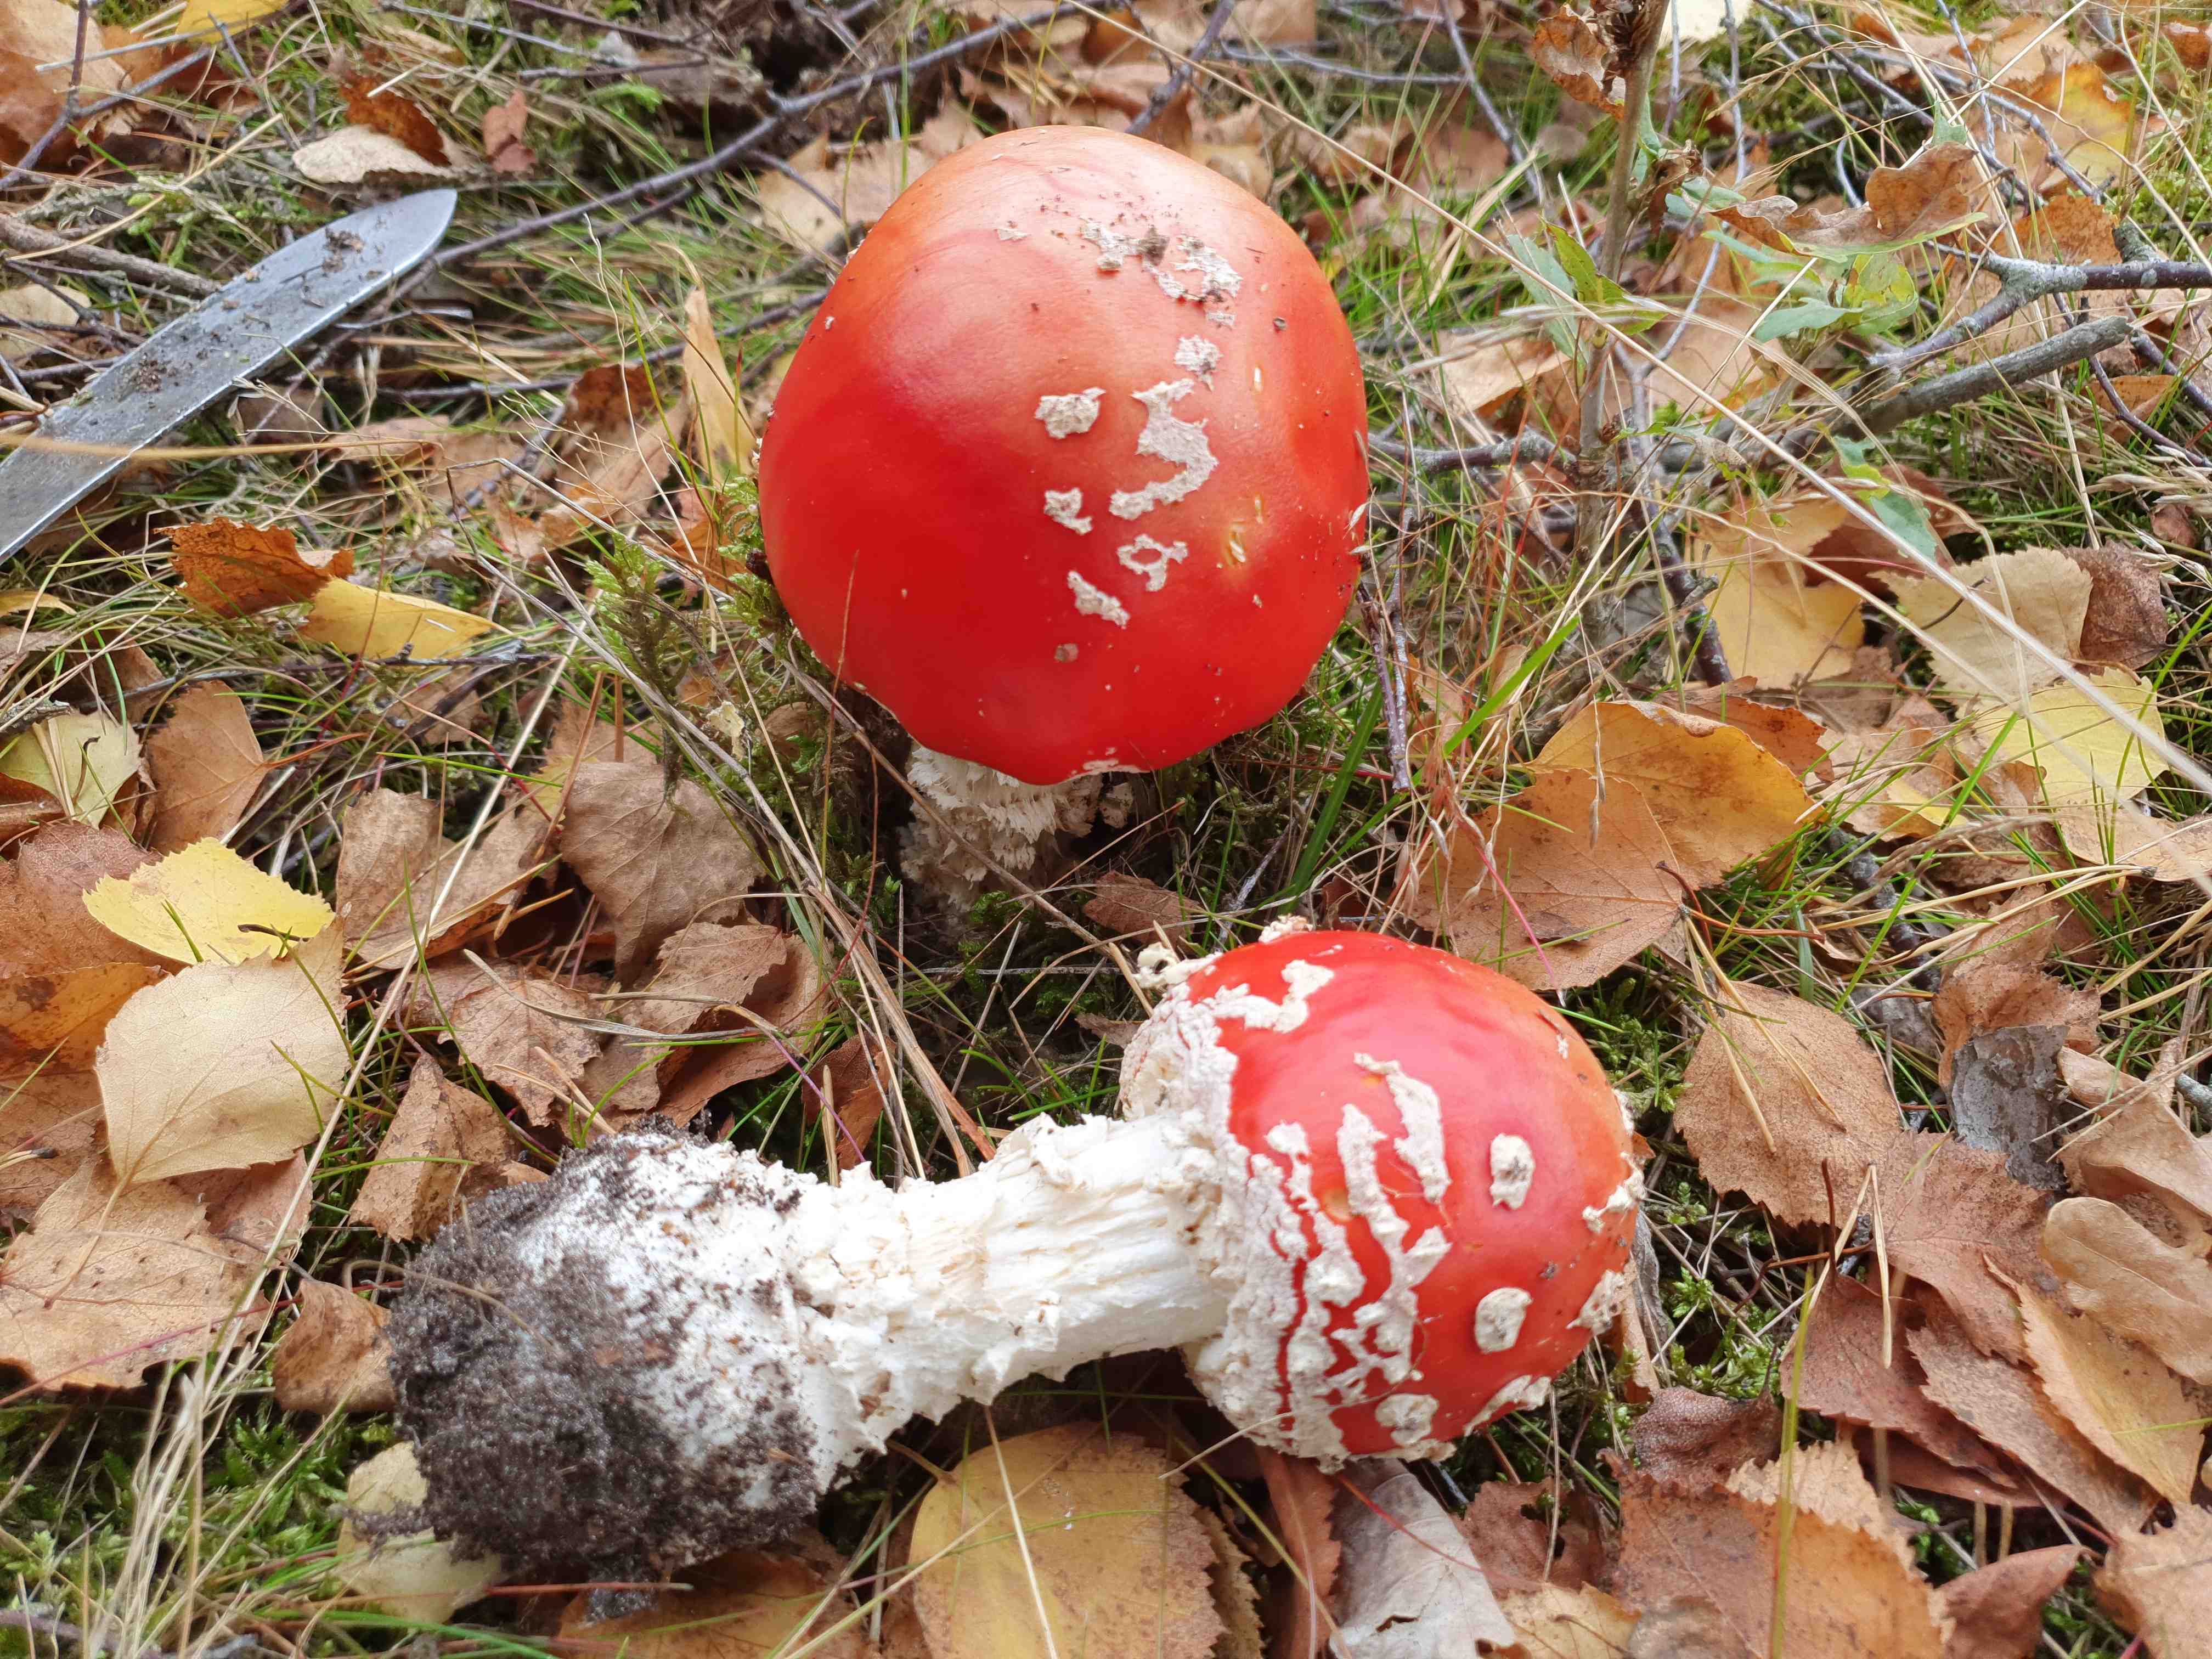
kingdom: Fungi
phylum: Basidiomycota
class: Agaricomycetes
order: Agaricales
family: Amanitaceae
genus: Amanita
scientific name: Amanita muscaria
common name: rød fluesvamp
